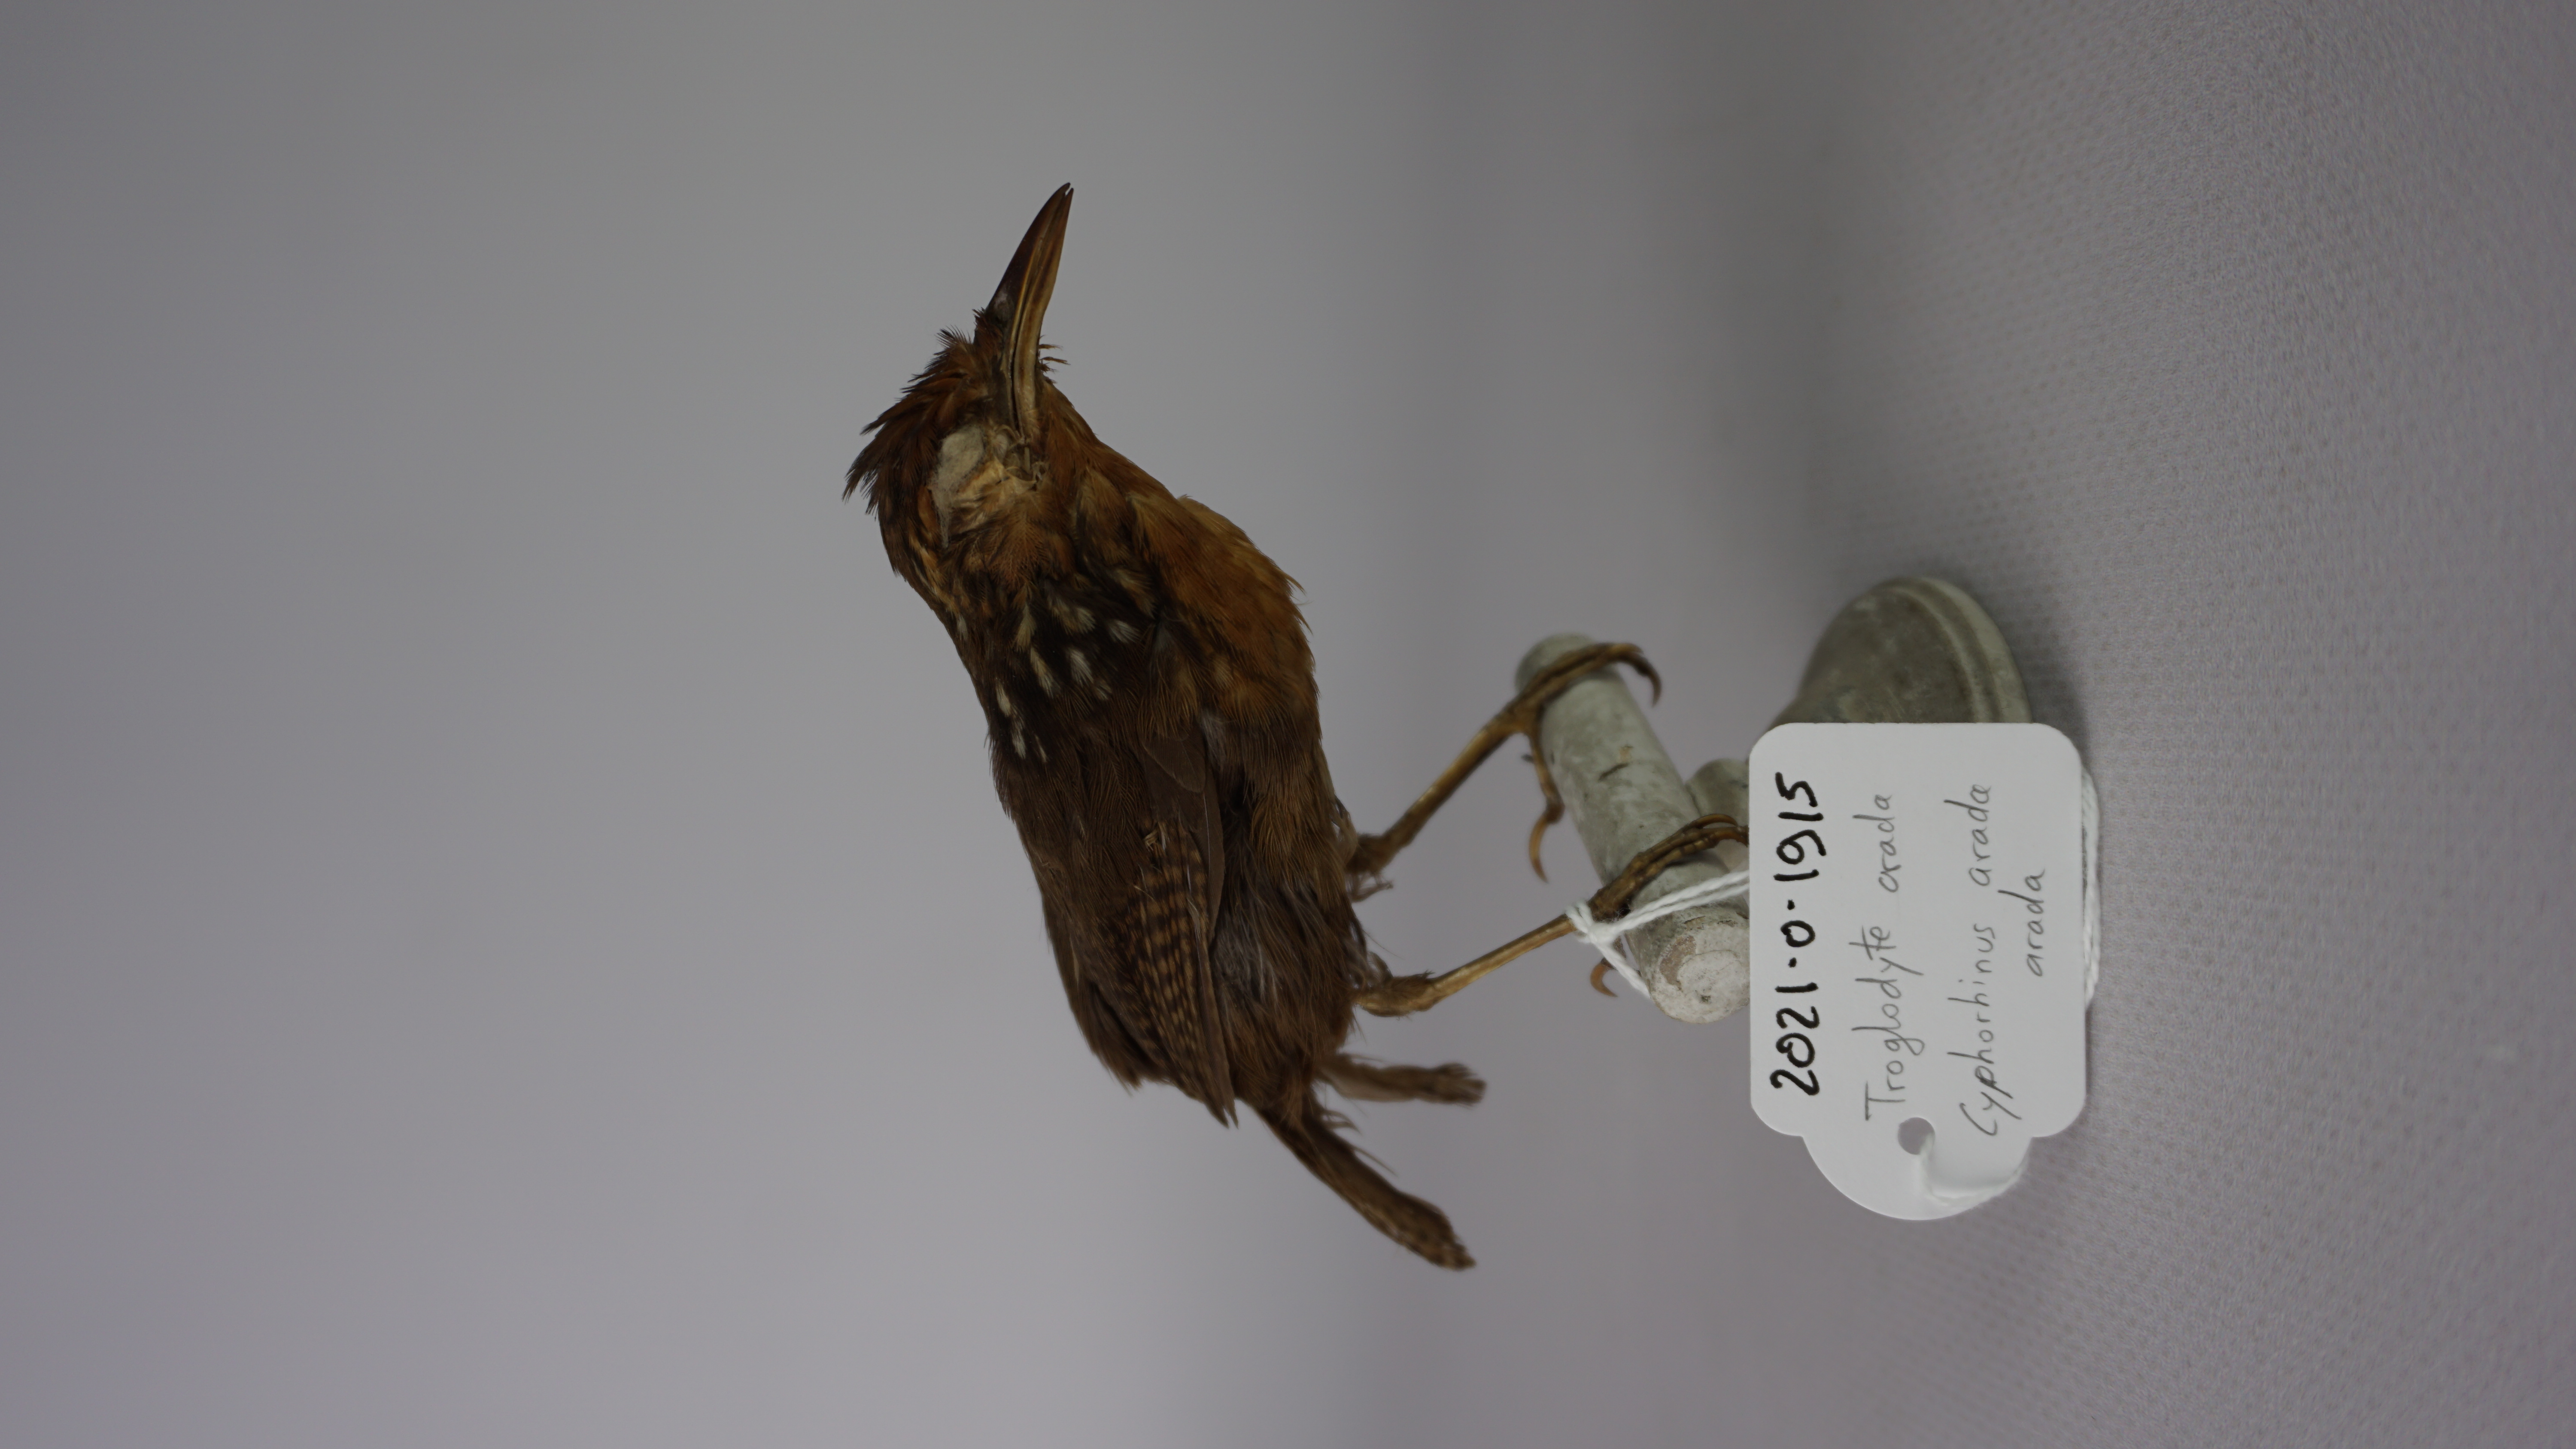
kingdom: Animalia
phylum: Chordata
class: Aves
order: Passeriformes
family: Troglodytidae
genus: Cyphorhinus
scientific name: Cyphorhinus arada
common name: Musician wren
